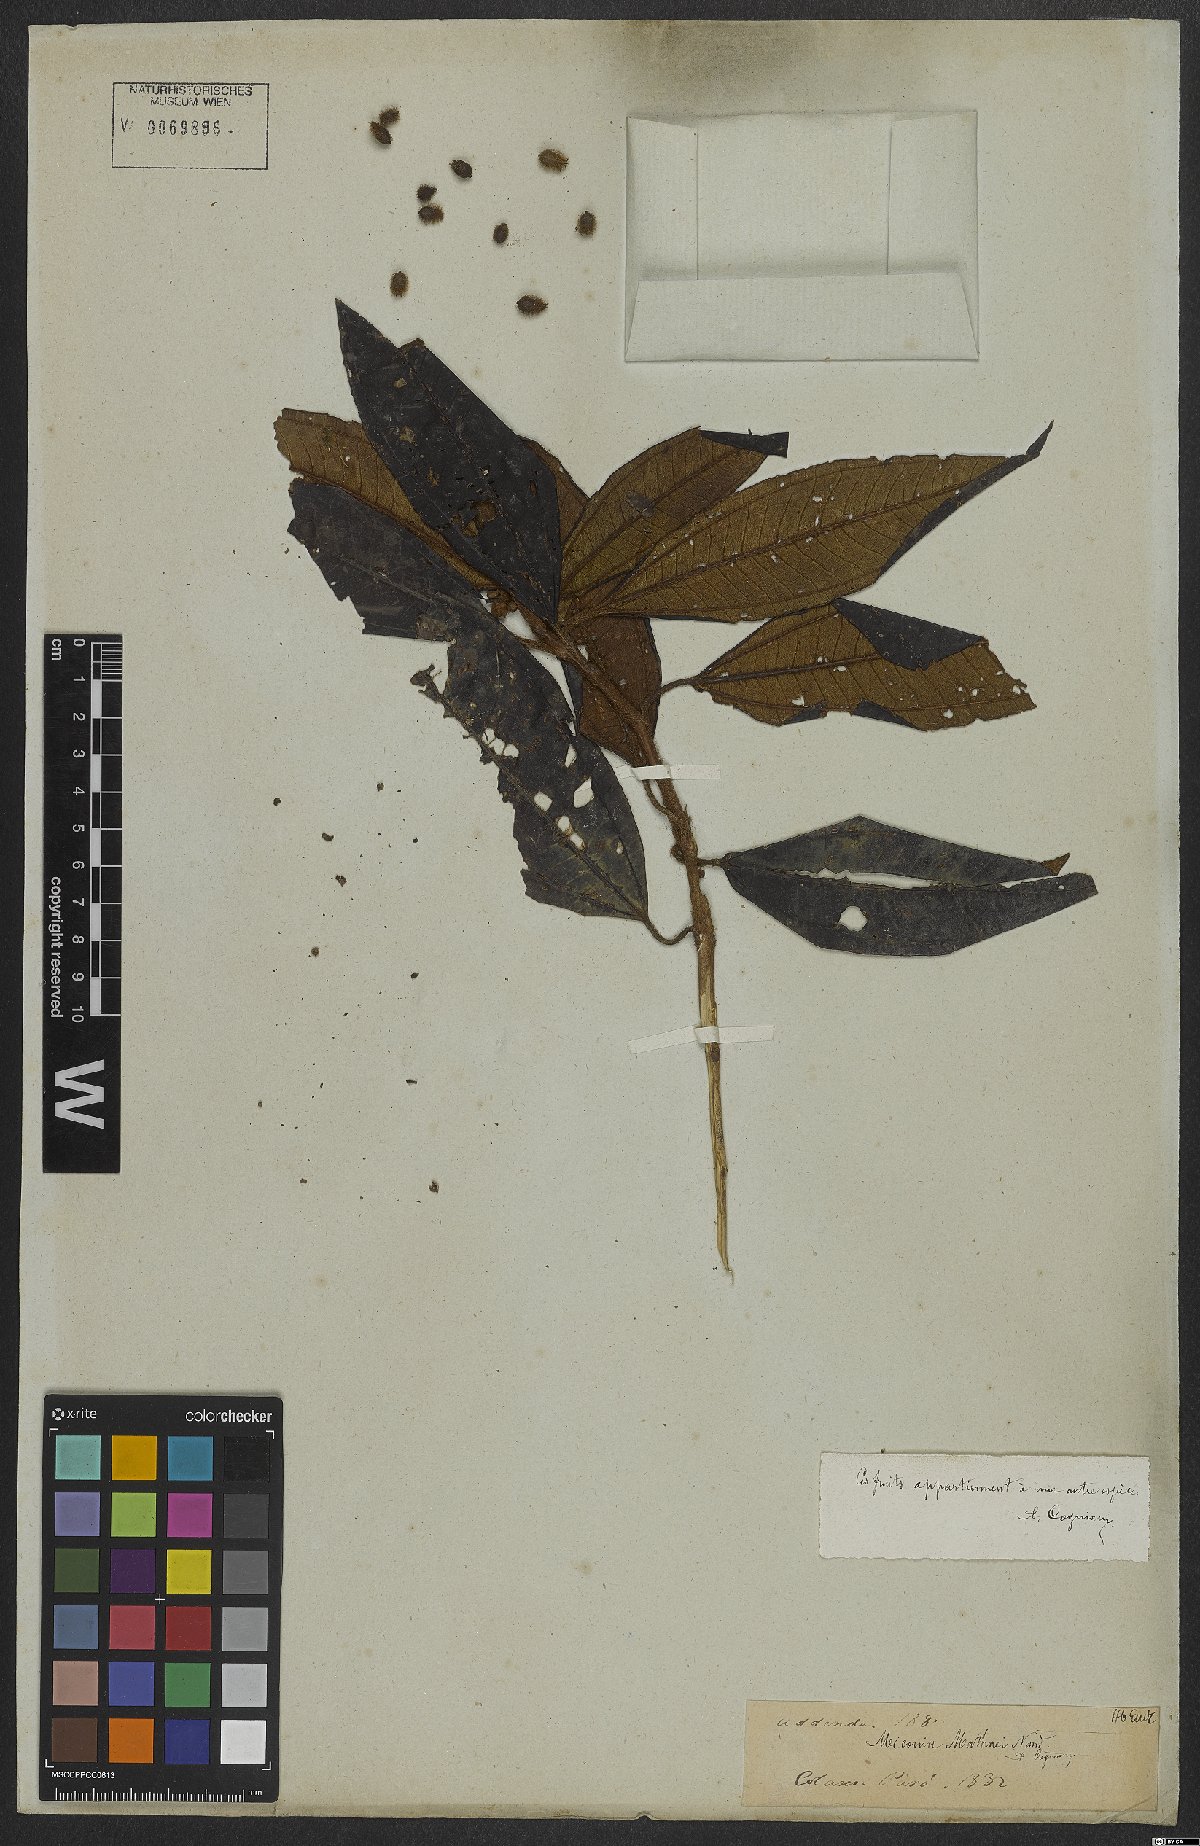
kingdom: Plantae
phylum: Tracheophyta
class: Magnoliopsida
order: Myrtales
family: Melastomataceae
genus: Miconia
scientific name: Miconia matthaei
